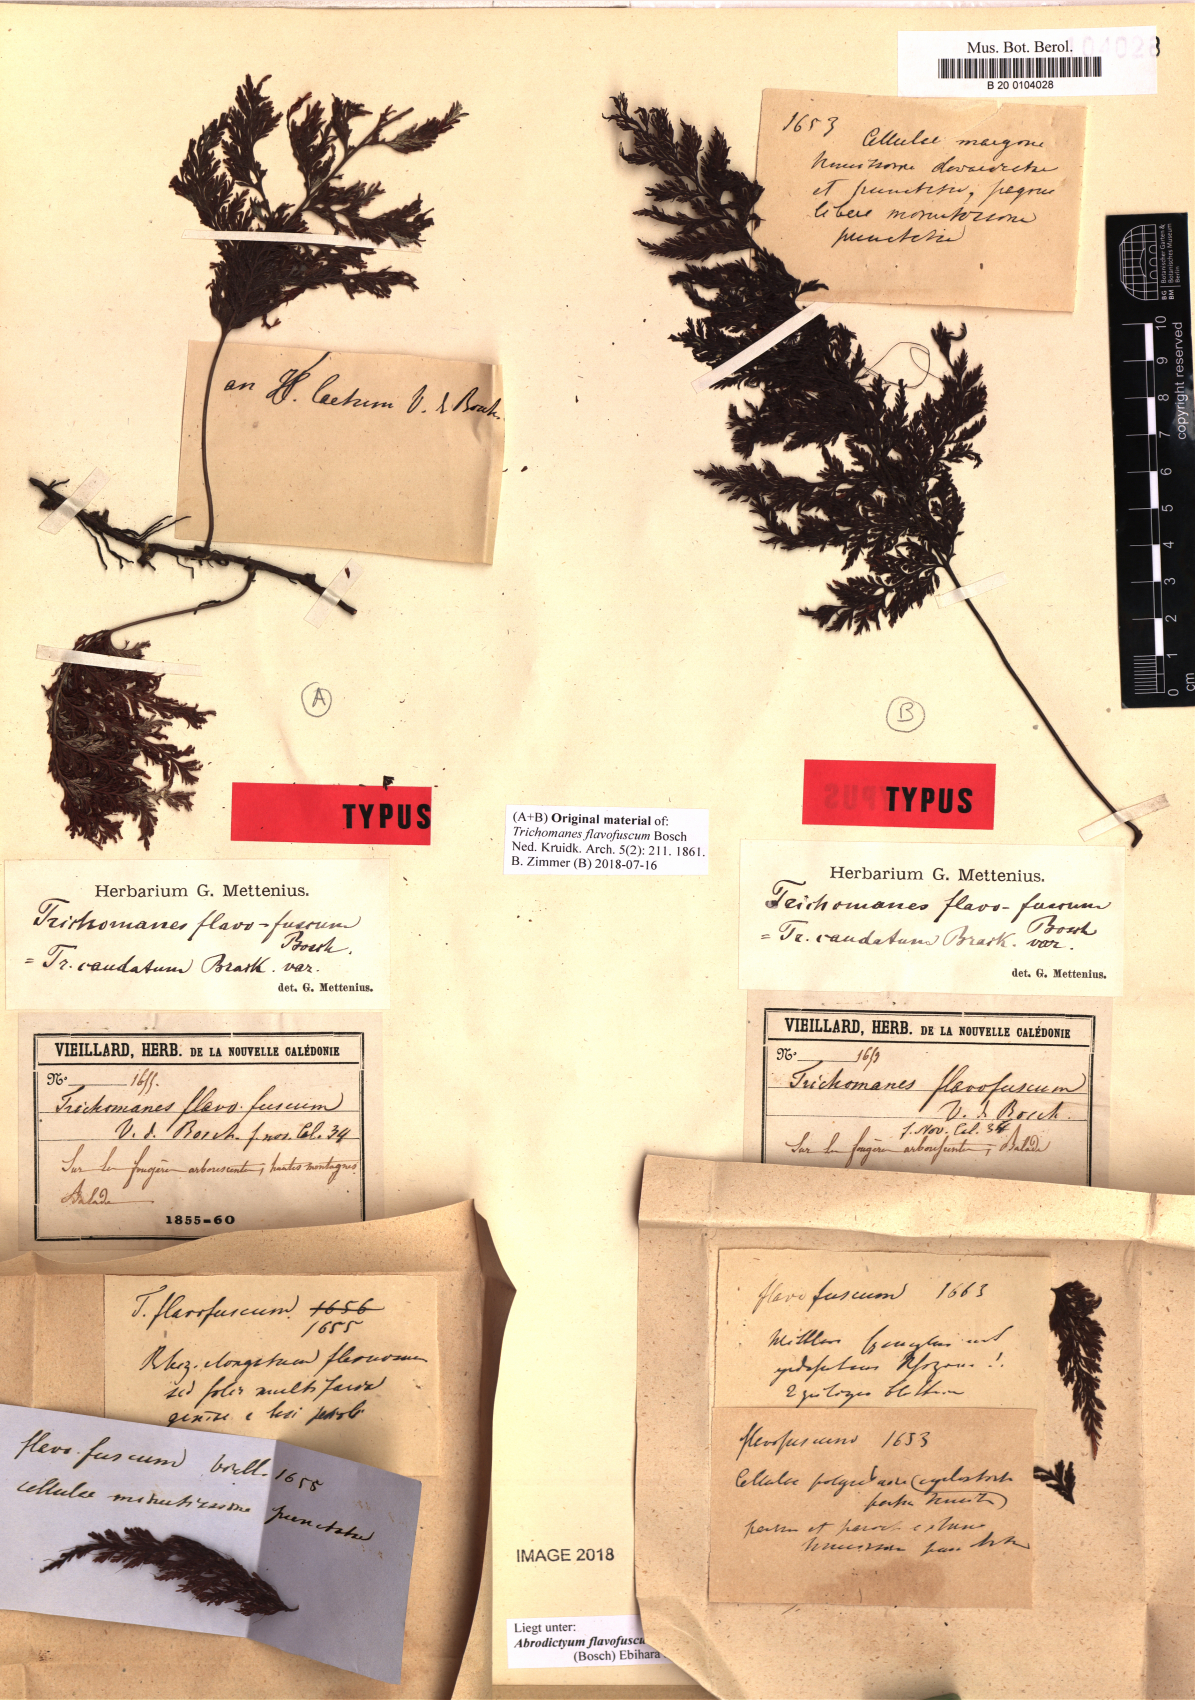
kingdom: Plantae
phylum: Tracheophyta
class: Polypodiopsida
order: Hymenophyllales
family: Hymenophyllaceae
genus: Abrodictyum
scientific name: Abrodictyum flavofuscum
